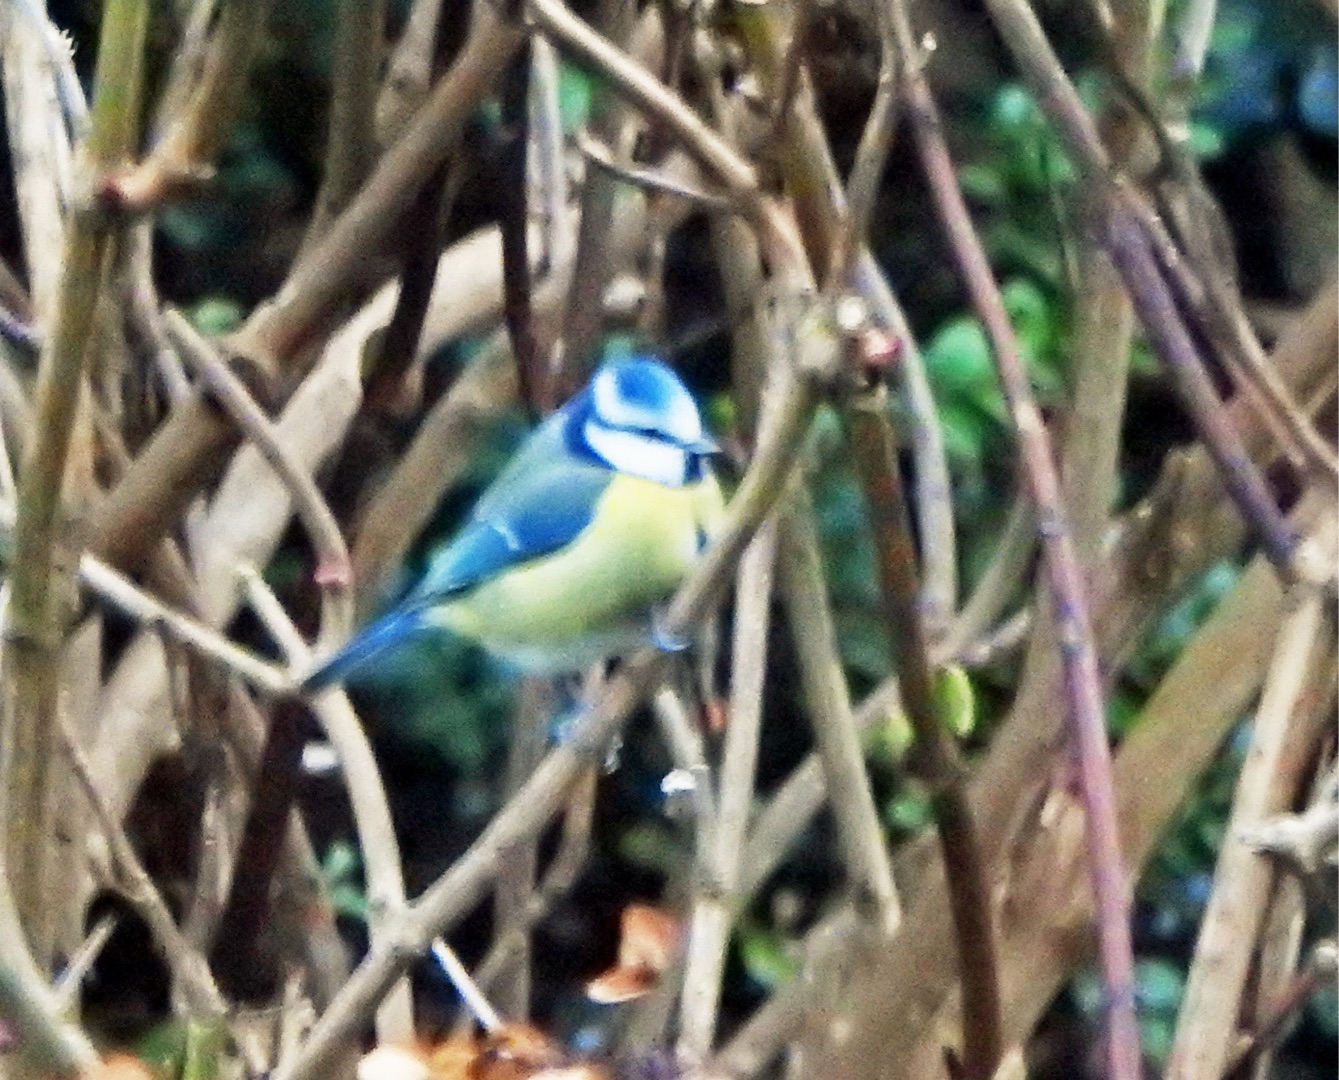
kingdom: Animalia
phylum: Chordata
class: Aves
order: Passeriformes
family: Paridae
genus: Cyanistes
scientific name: Cyanistes caeruleus
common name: Blåmejse
